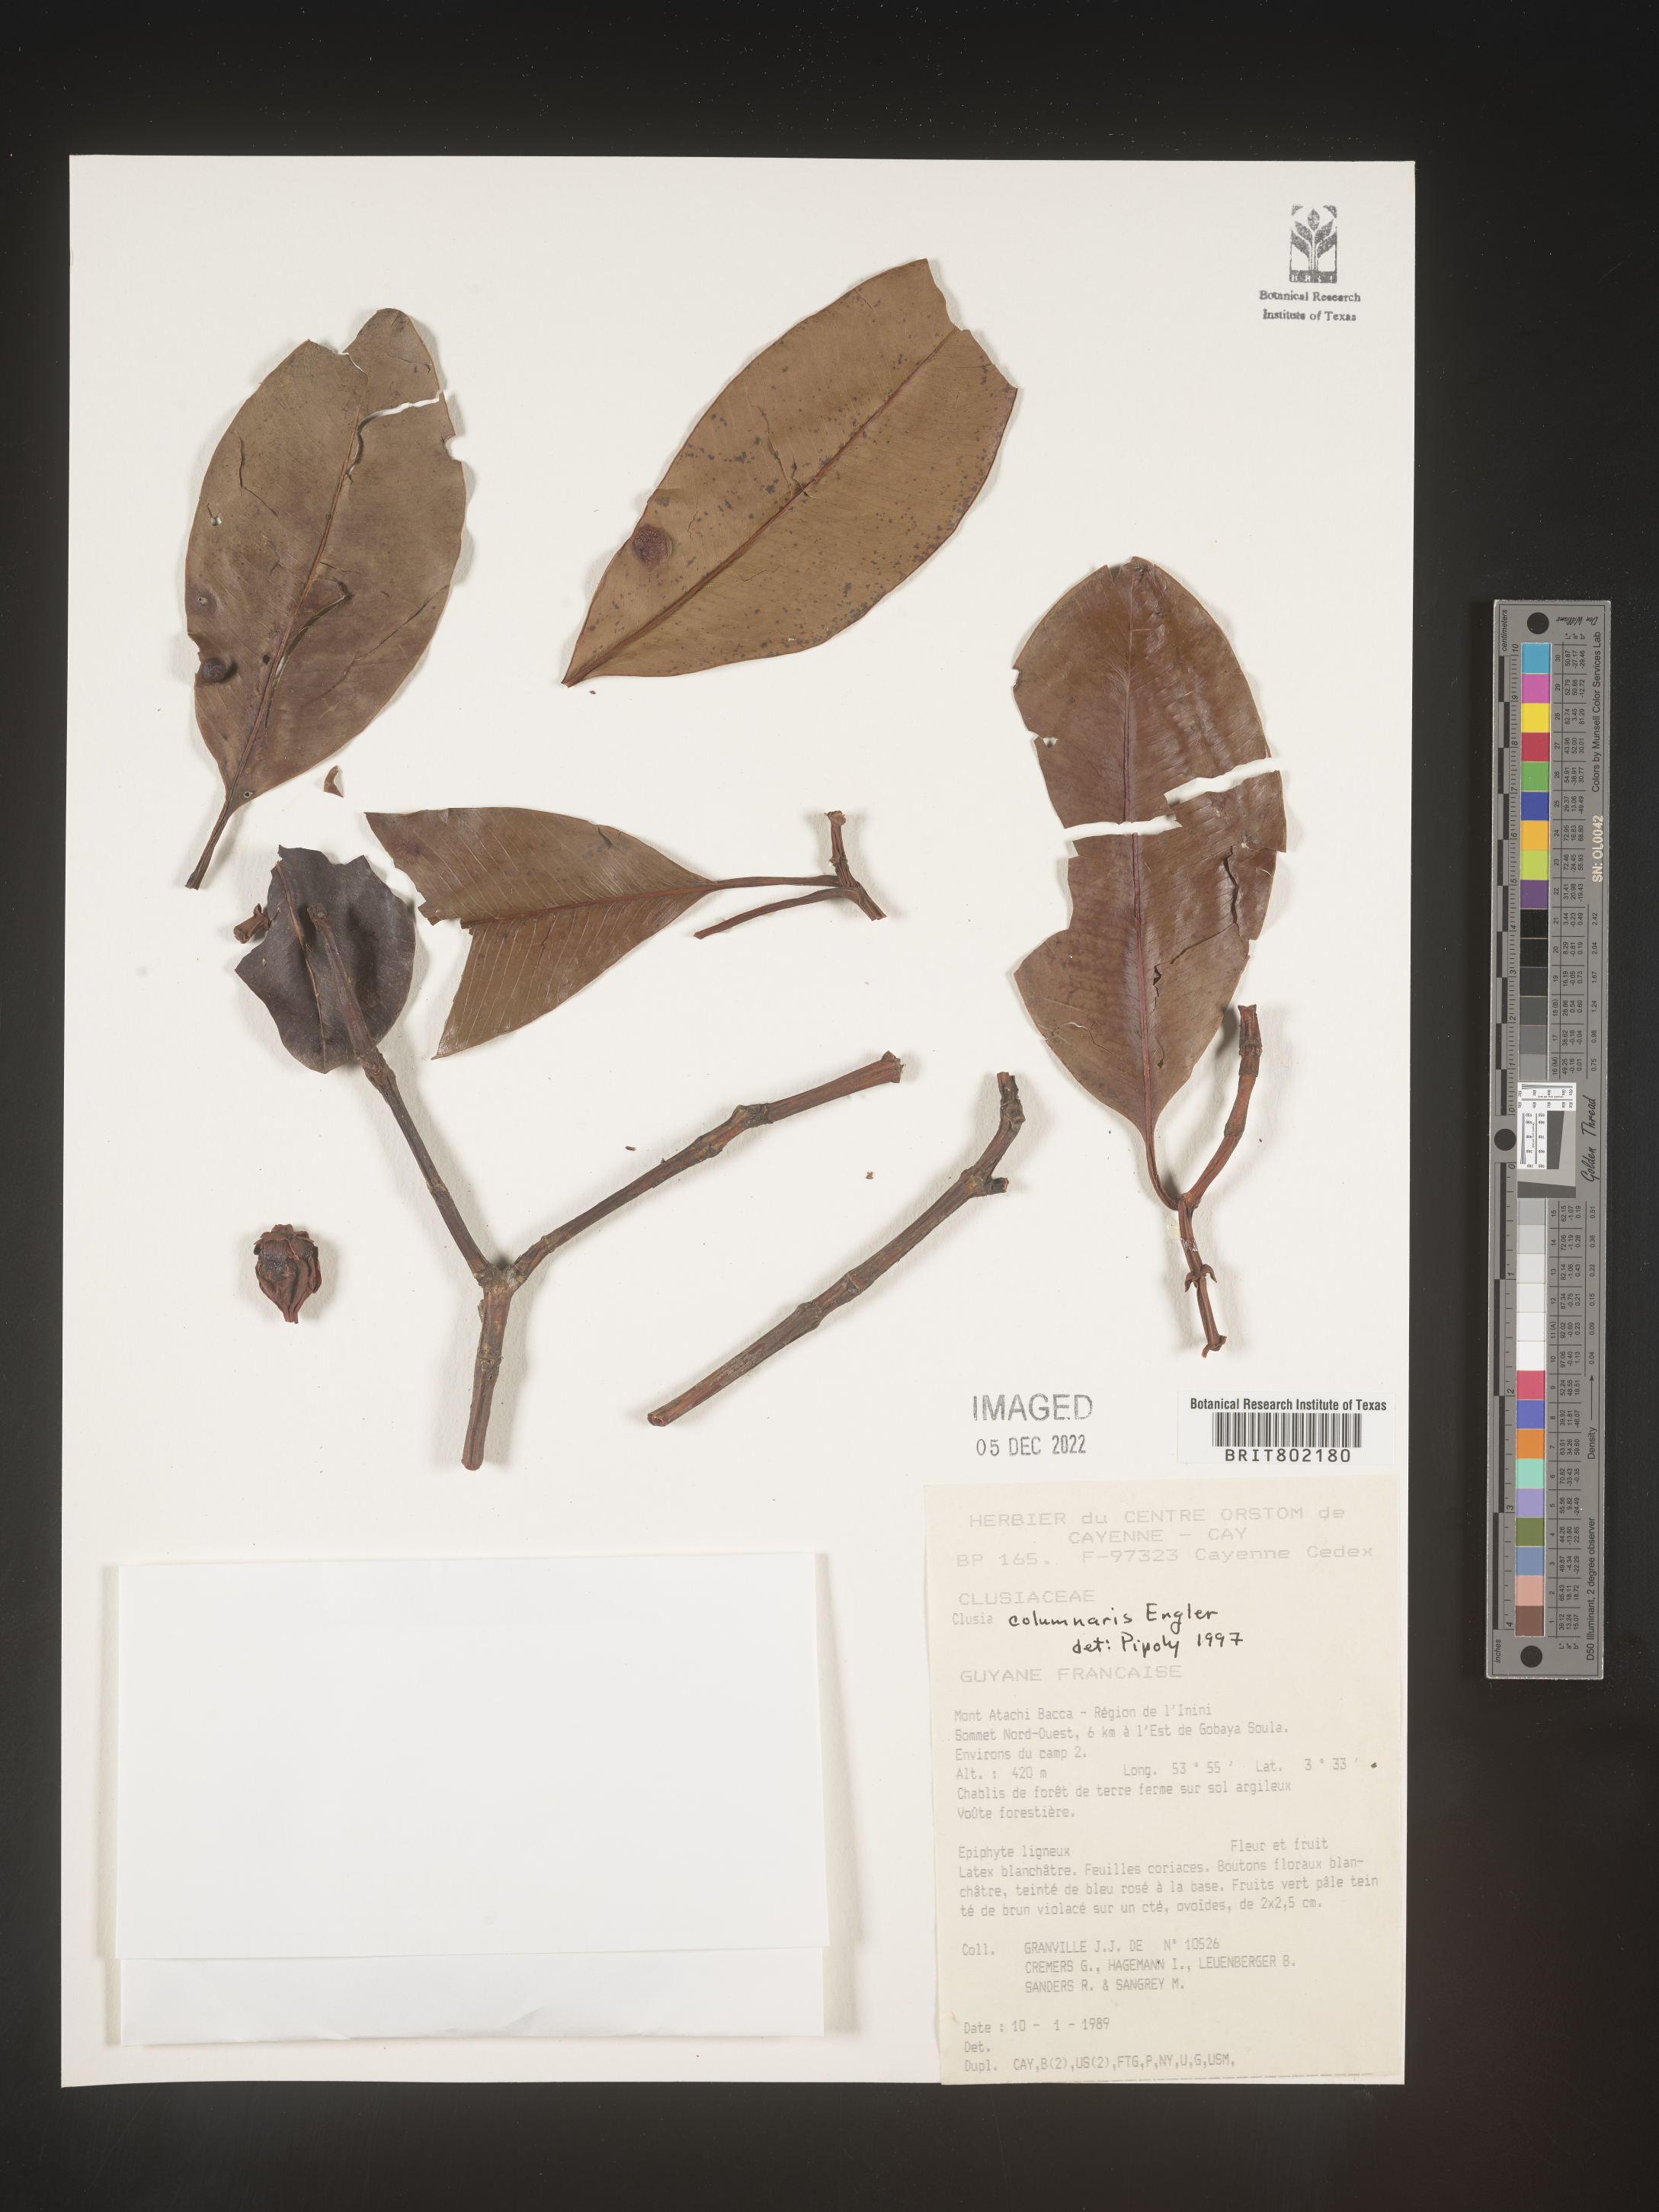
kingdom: Plantae
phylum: Tracheophyta
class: Magnoliopsida
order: Malpighiales
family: Clusiaceae
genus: Clusia
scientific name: Clusia columnaris
